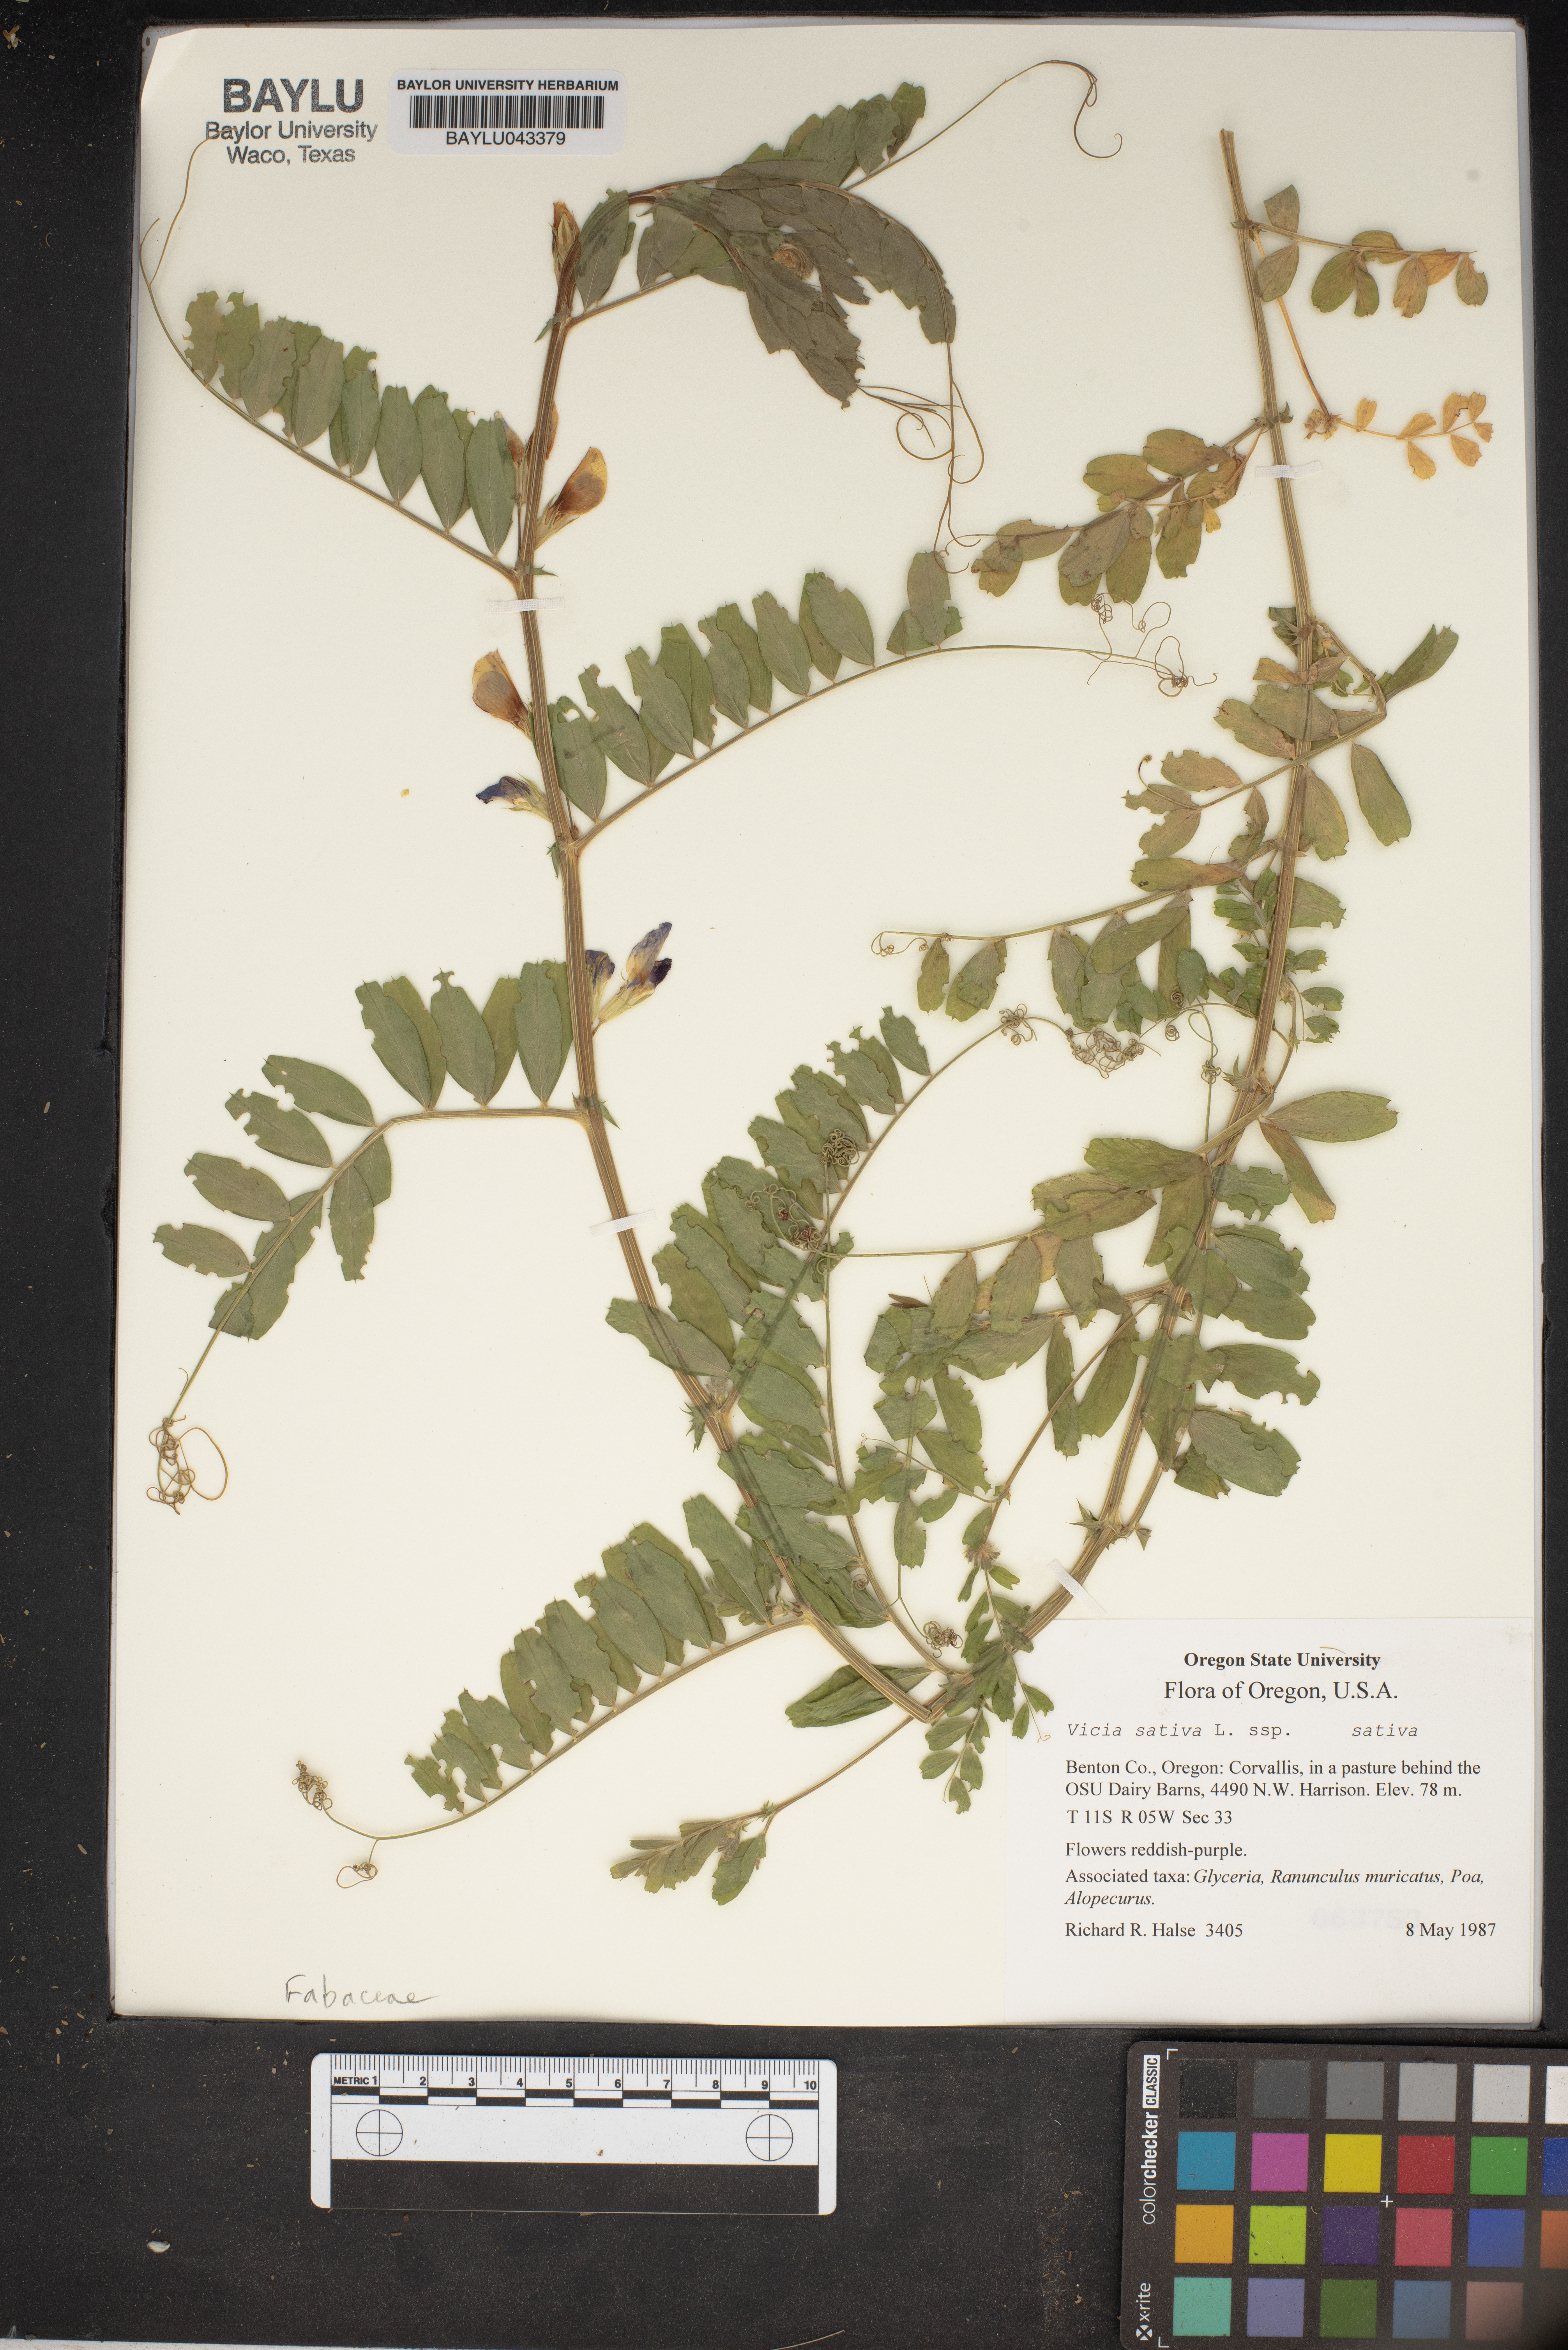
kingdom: Plantae
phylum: Tracheophyta
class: Magnoliopsida
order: Fabales
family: Fabaceae
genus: Vicia
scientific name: Vicia sativa
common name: Garden vetch
